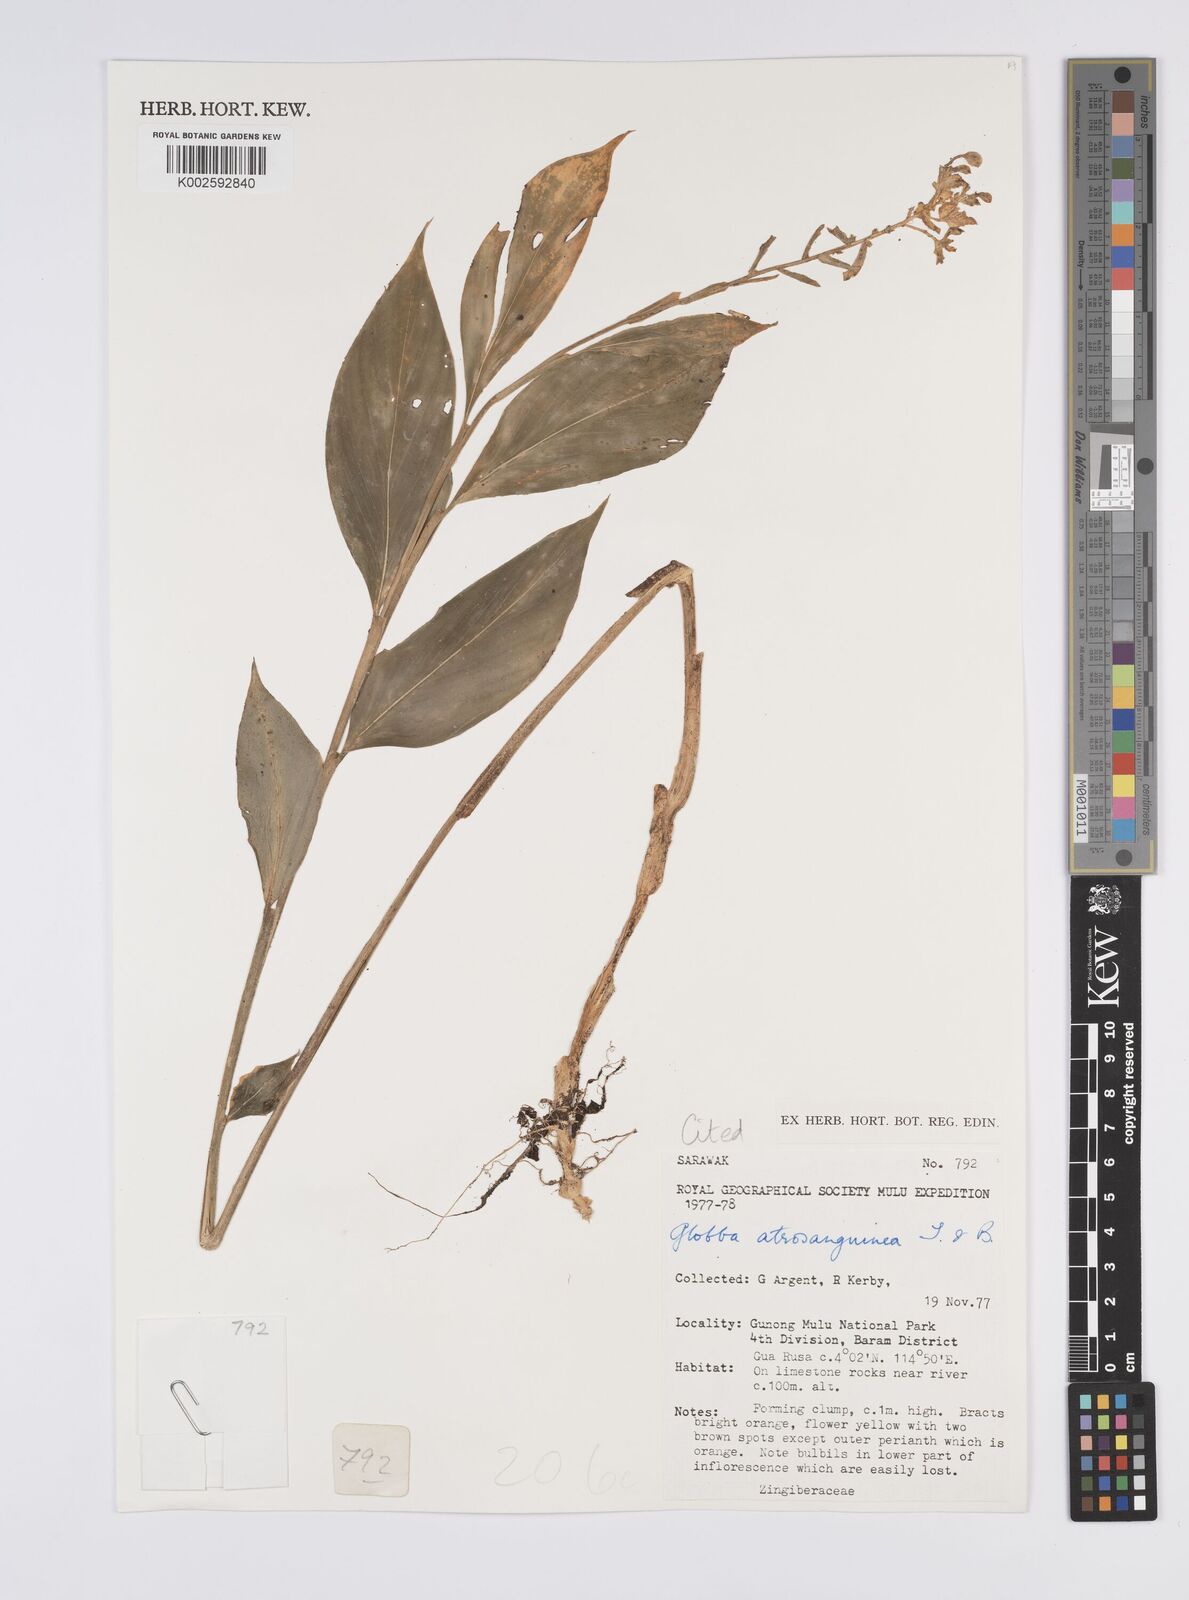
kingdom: Plantae
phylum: Tracheophyta
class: Liliopsida
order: Zingiberales
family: Zingiberaceae
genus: Globba
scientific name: Globba atrosanguinea
